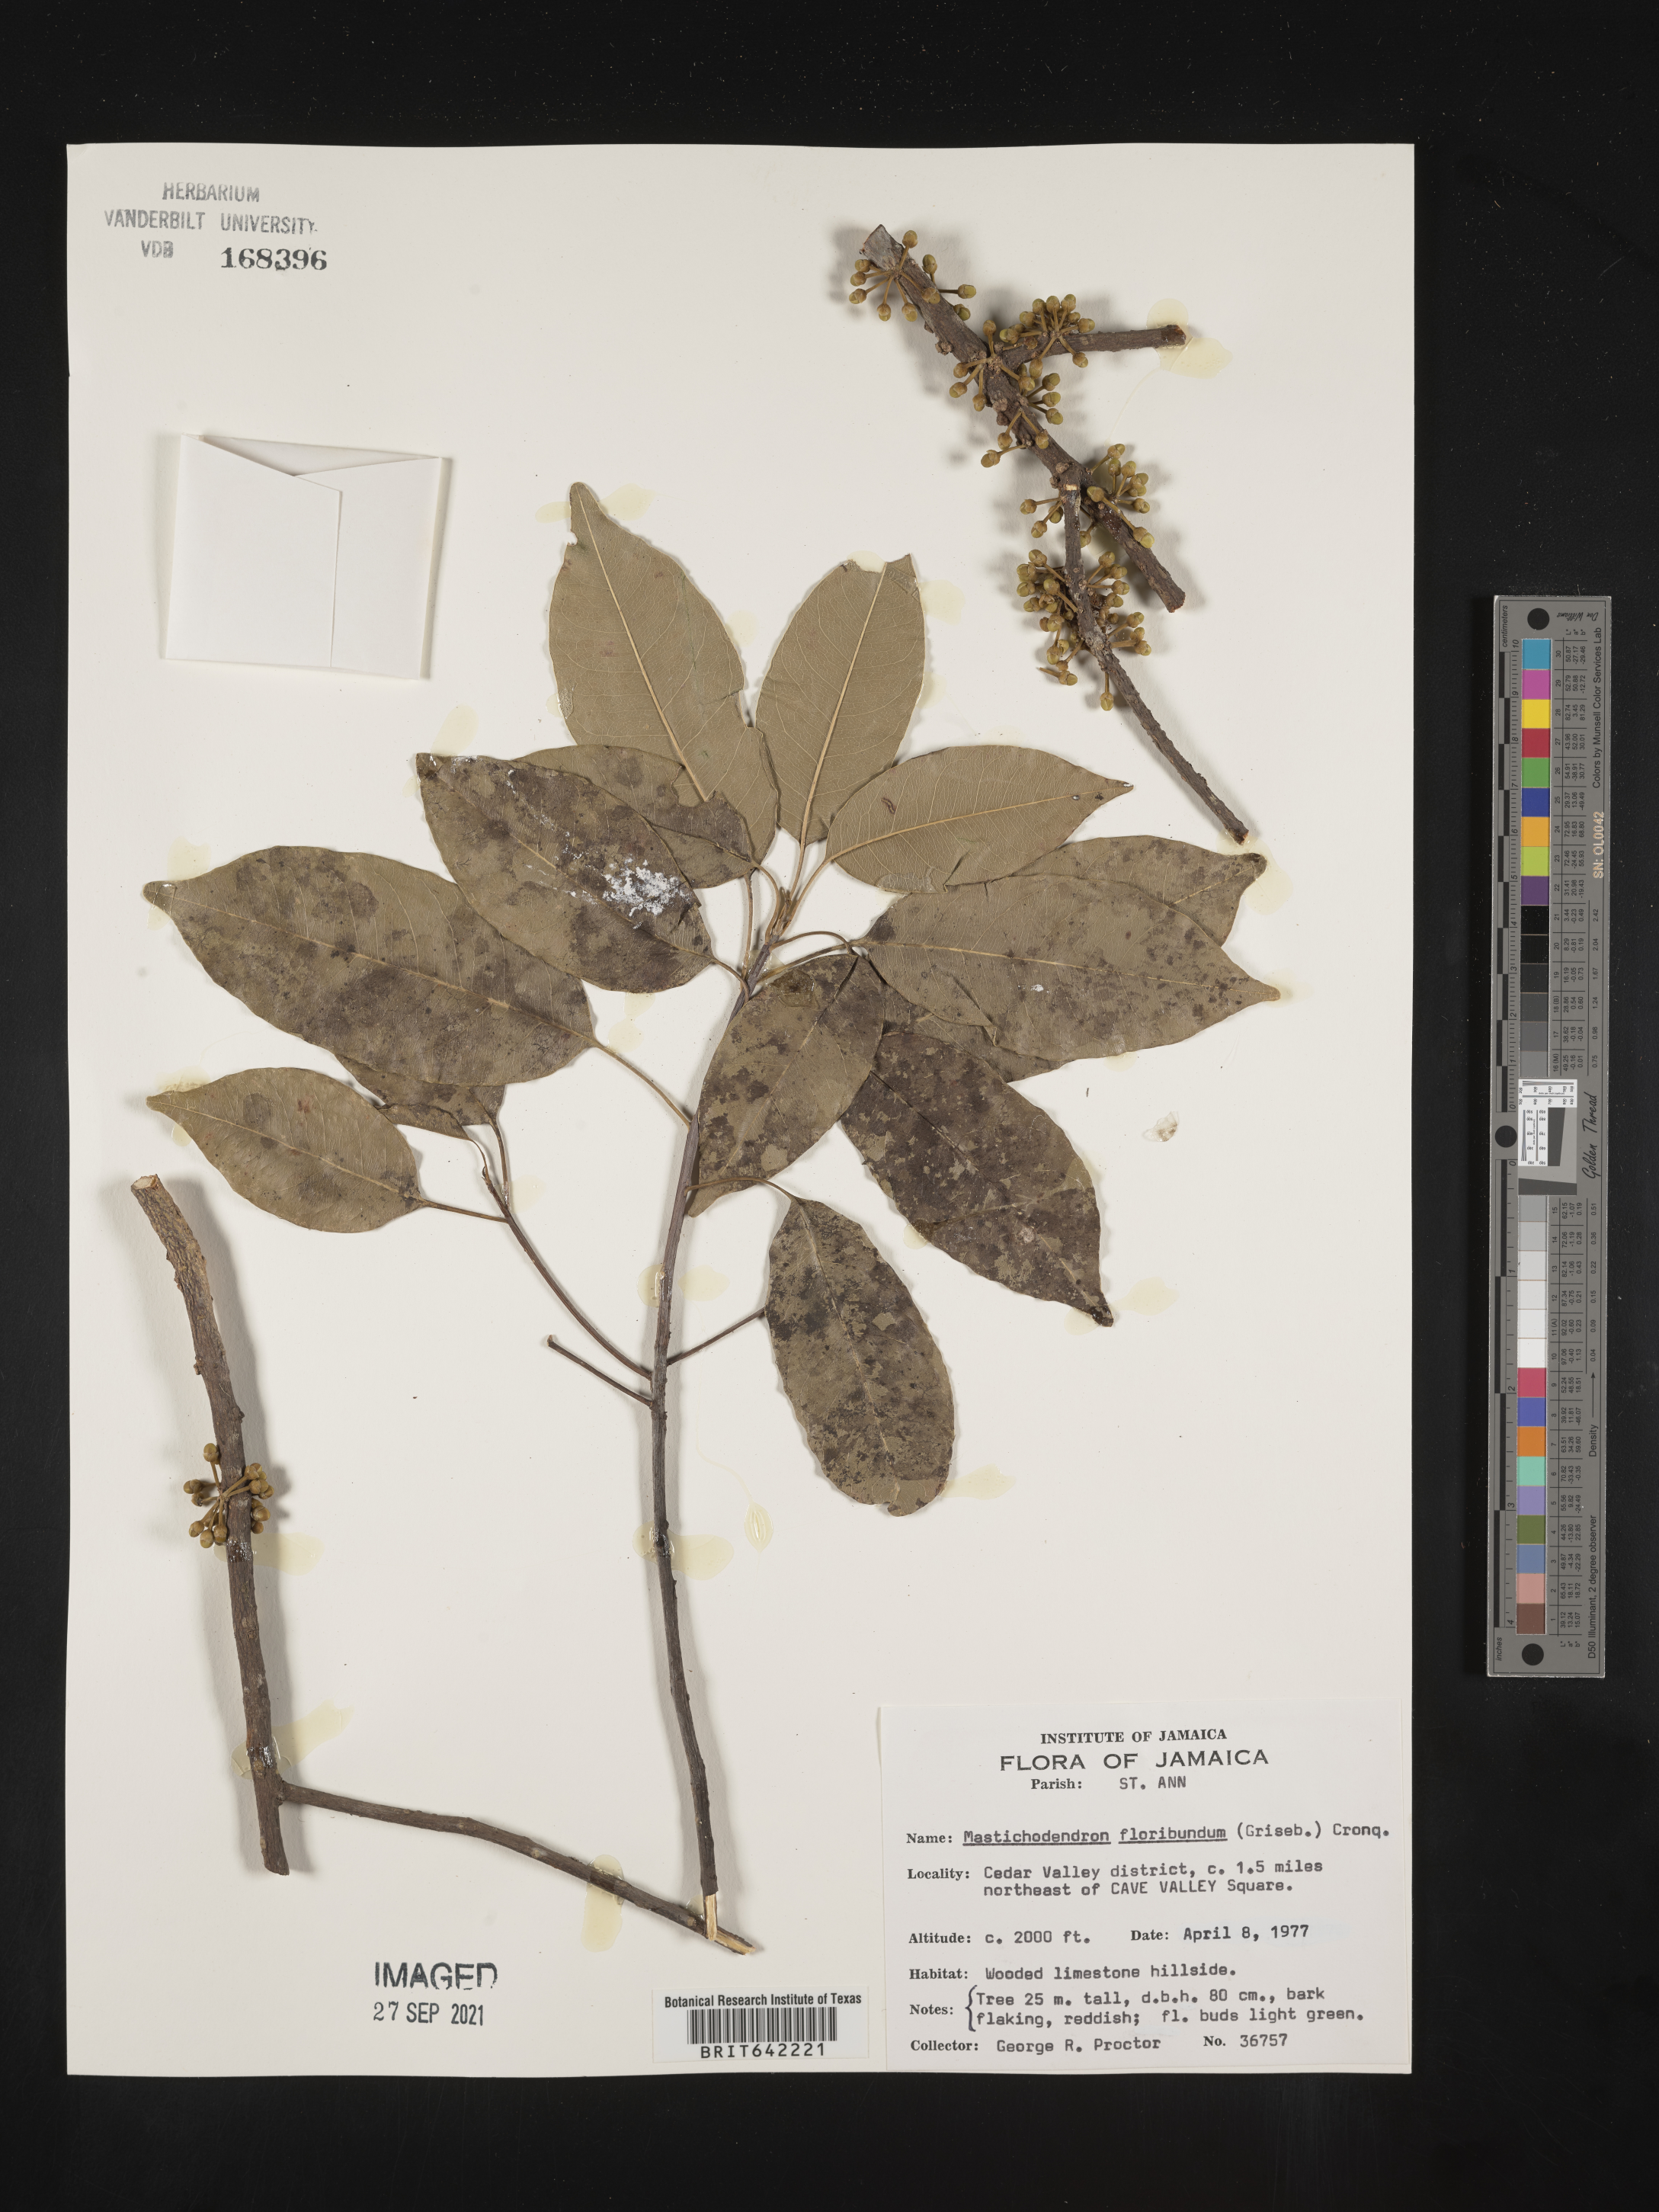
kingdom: Plantae
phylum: Tracheophyta
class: Magnoliopsida
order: Ericales
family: Sapotaceae
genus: Mastichodendron
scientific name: Mastichodendron
